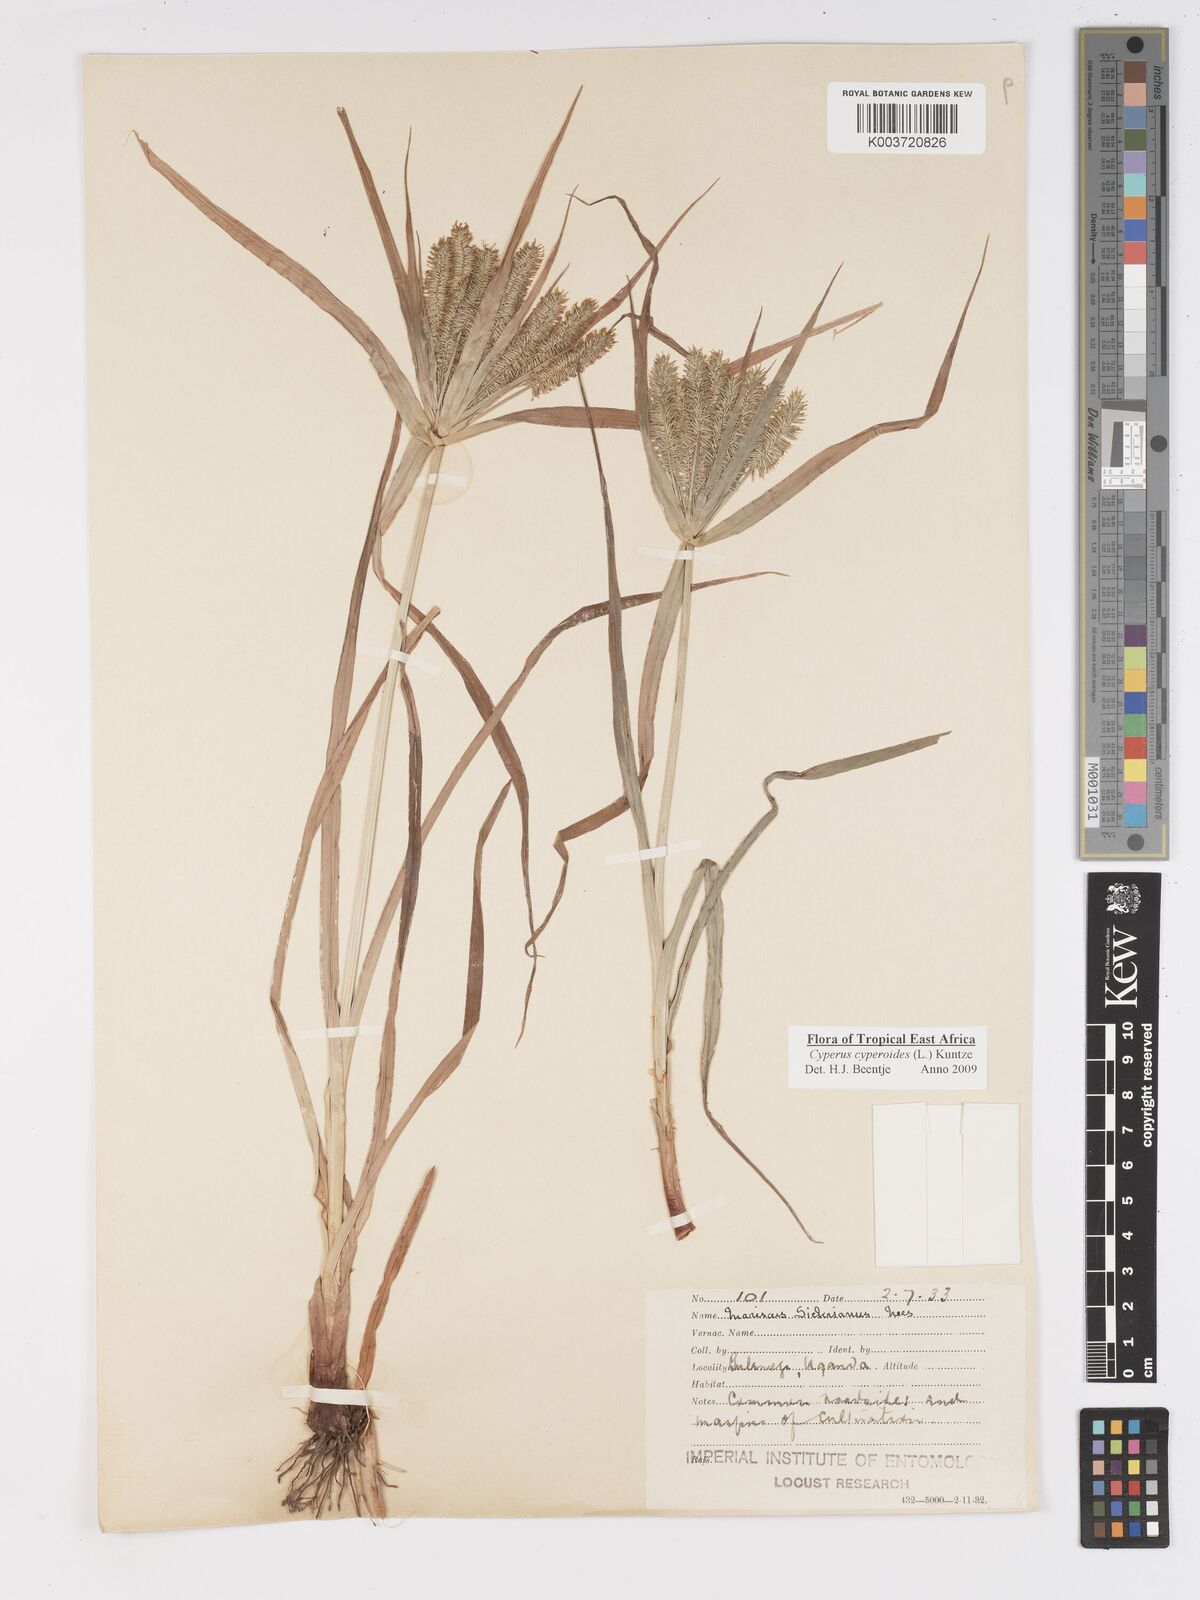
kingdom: Plantae
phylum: Tracheophyta
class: Liliopsida
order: Poales
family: Cyperaceae
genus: Cyperus
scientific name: Cyperus cyperoides
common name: Pacific island flat sedge
